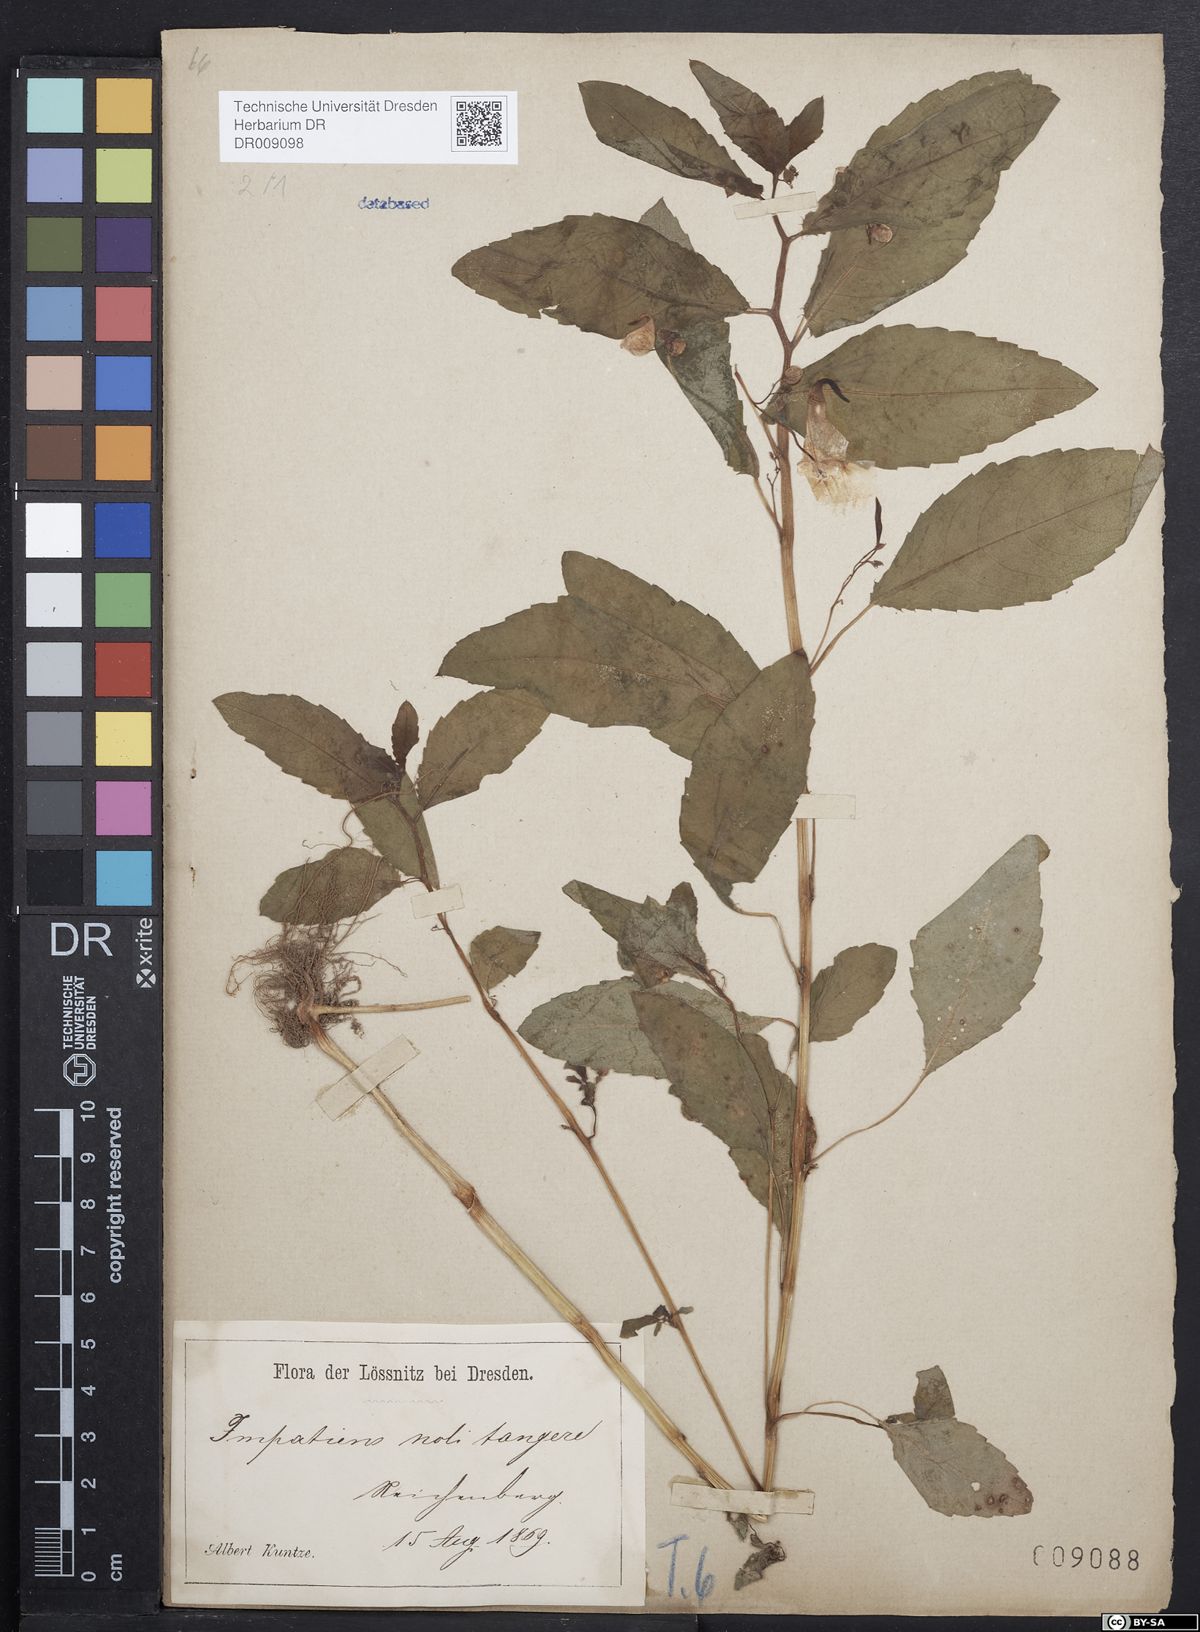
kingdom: Plantae
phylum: Tracheophyta
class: Magnoliopsida
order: Ericales
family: Balsaminaceae
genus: Impatiens
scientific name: Impatiens noli-tangere
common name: Touch-me-not balsam
